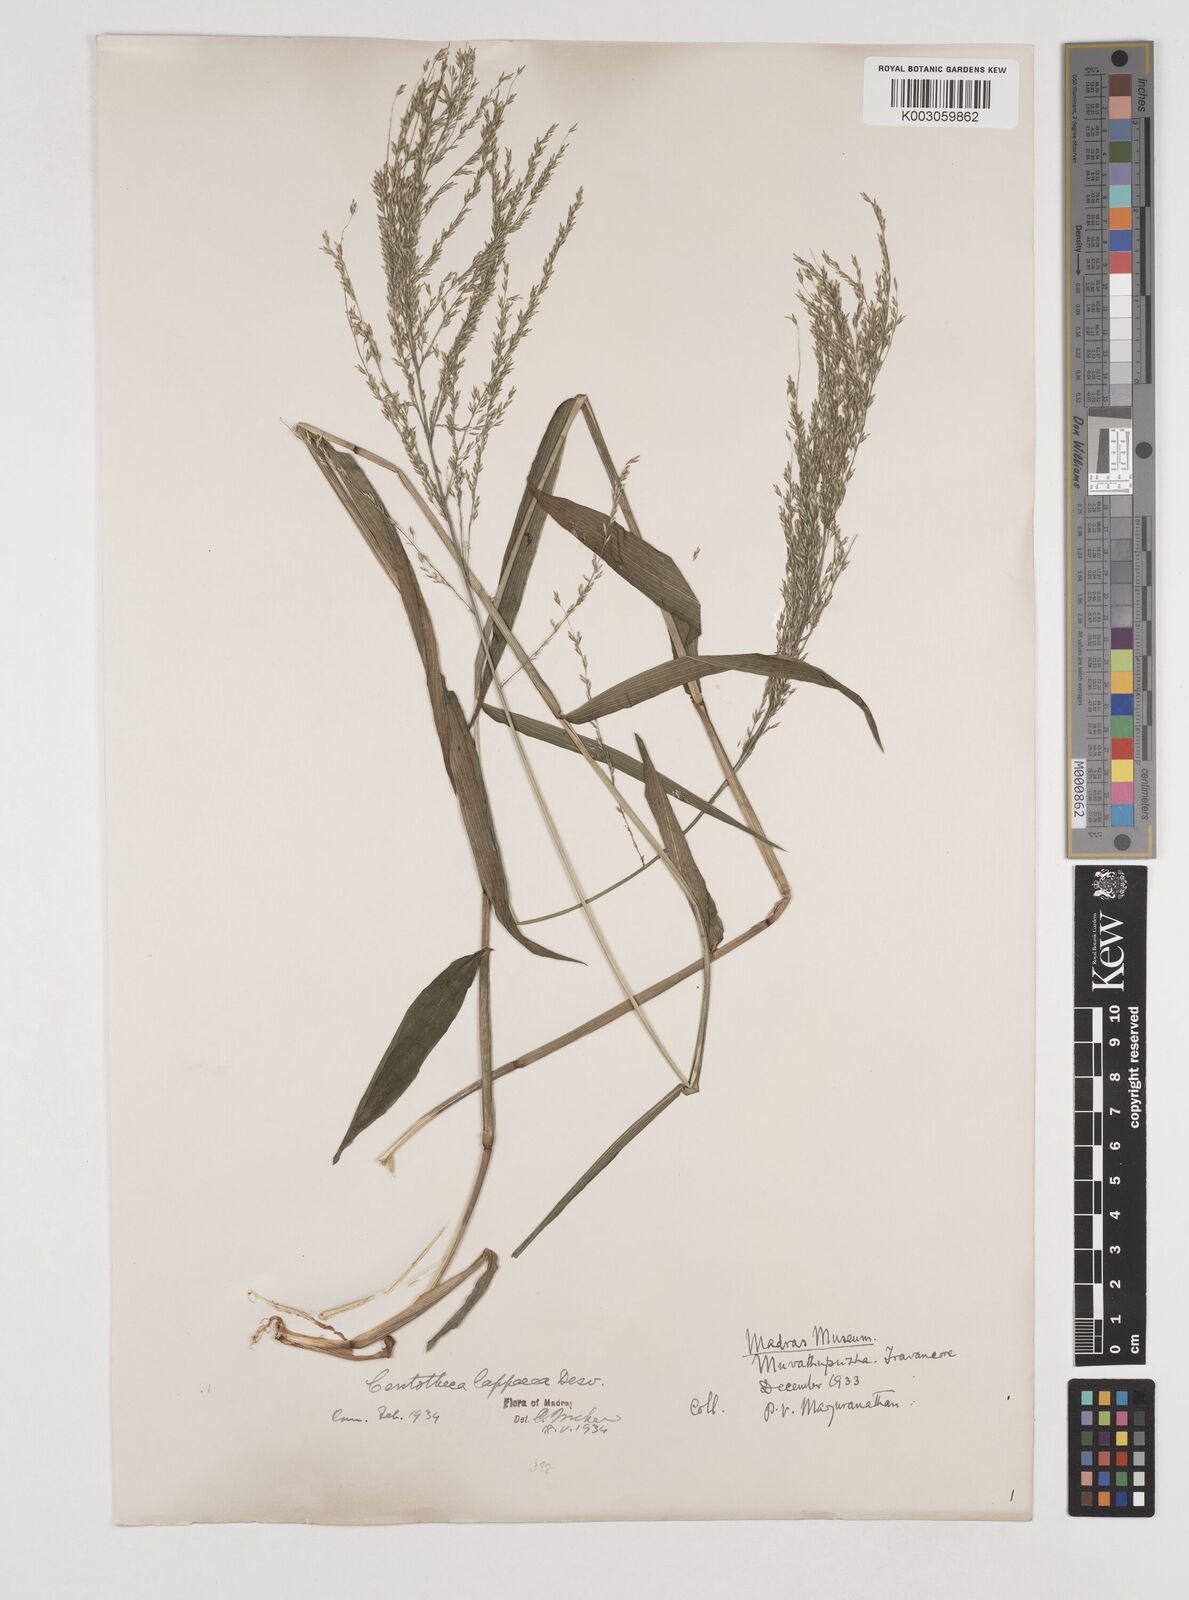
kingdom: Plantae
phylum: Tracheophyta
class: Liliopsida
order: Poales
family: Poaceae
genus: Centotheca
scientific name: Centotheca lappacea
